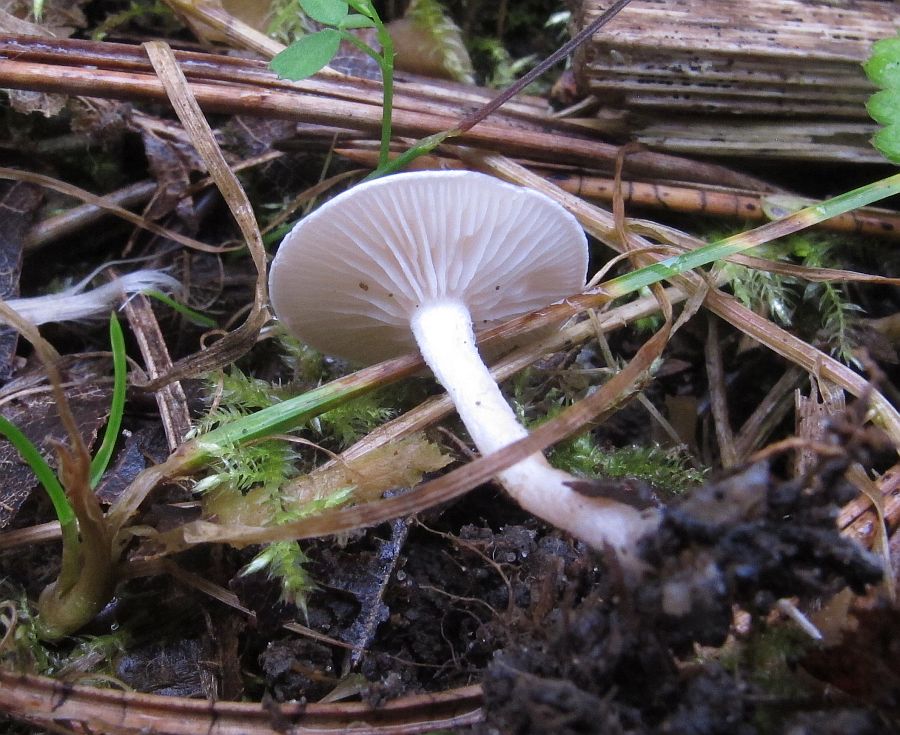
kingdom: Fungi
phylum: Basidiomycota
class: Agaricomycetes
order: Agaricales
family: Tricholomataceae
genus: Leucocybe
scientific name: Leucocybe candicans
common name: kridt-tragthat
